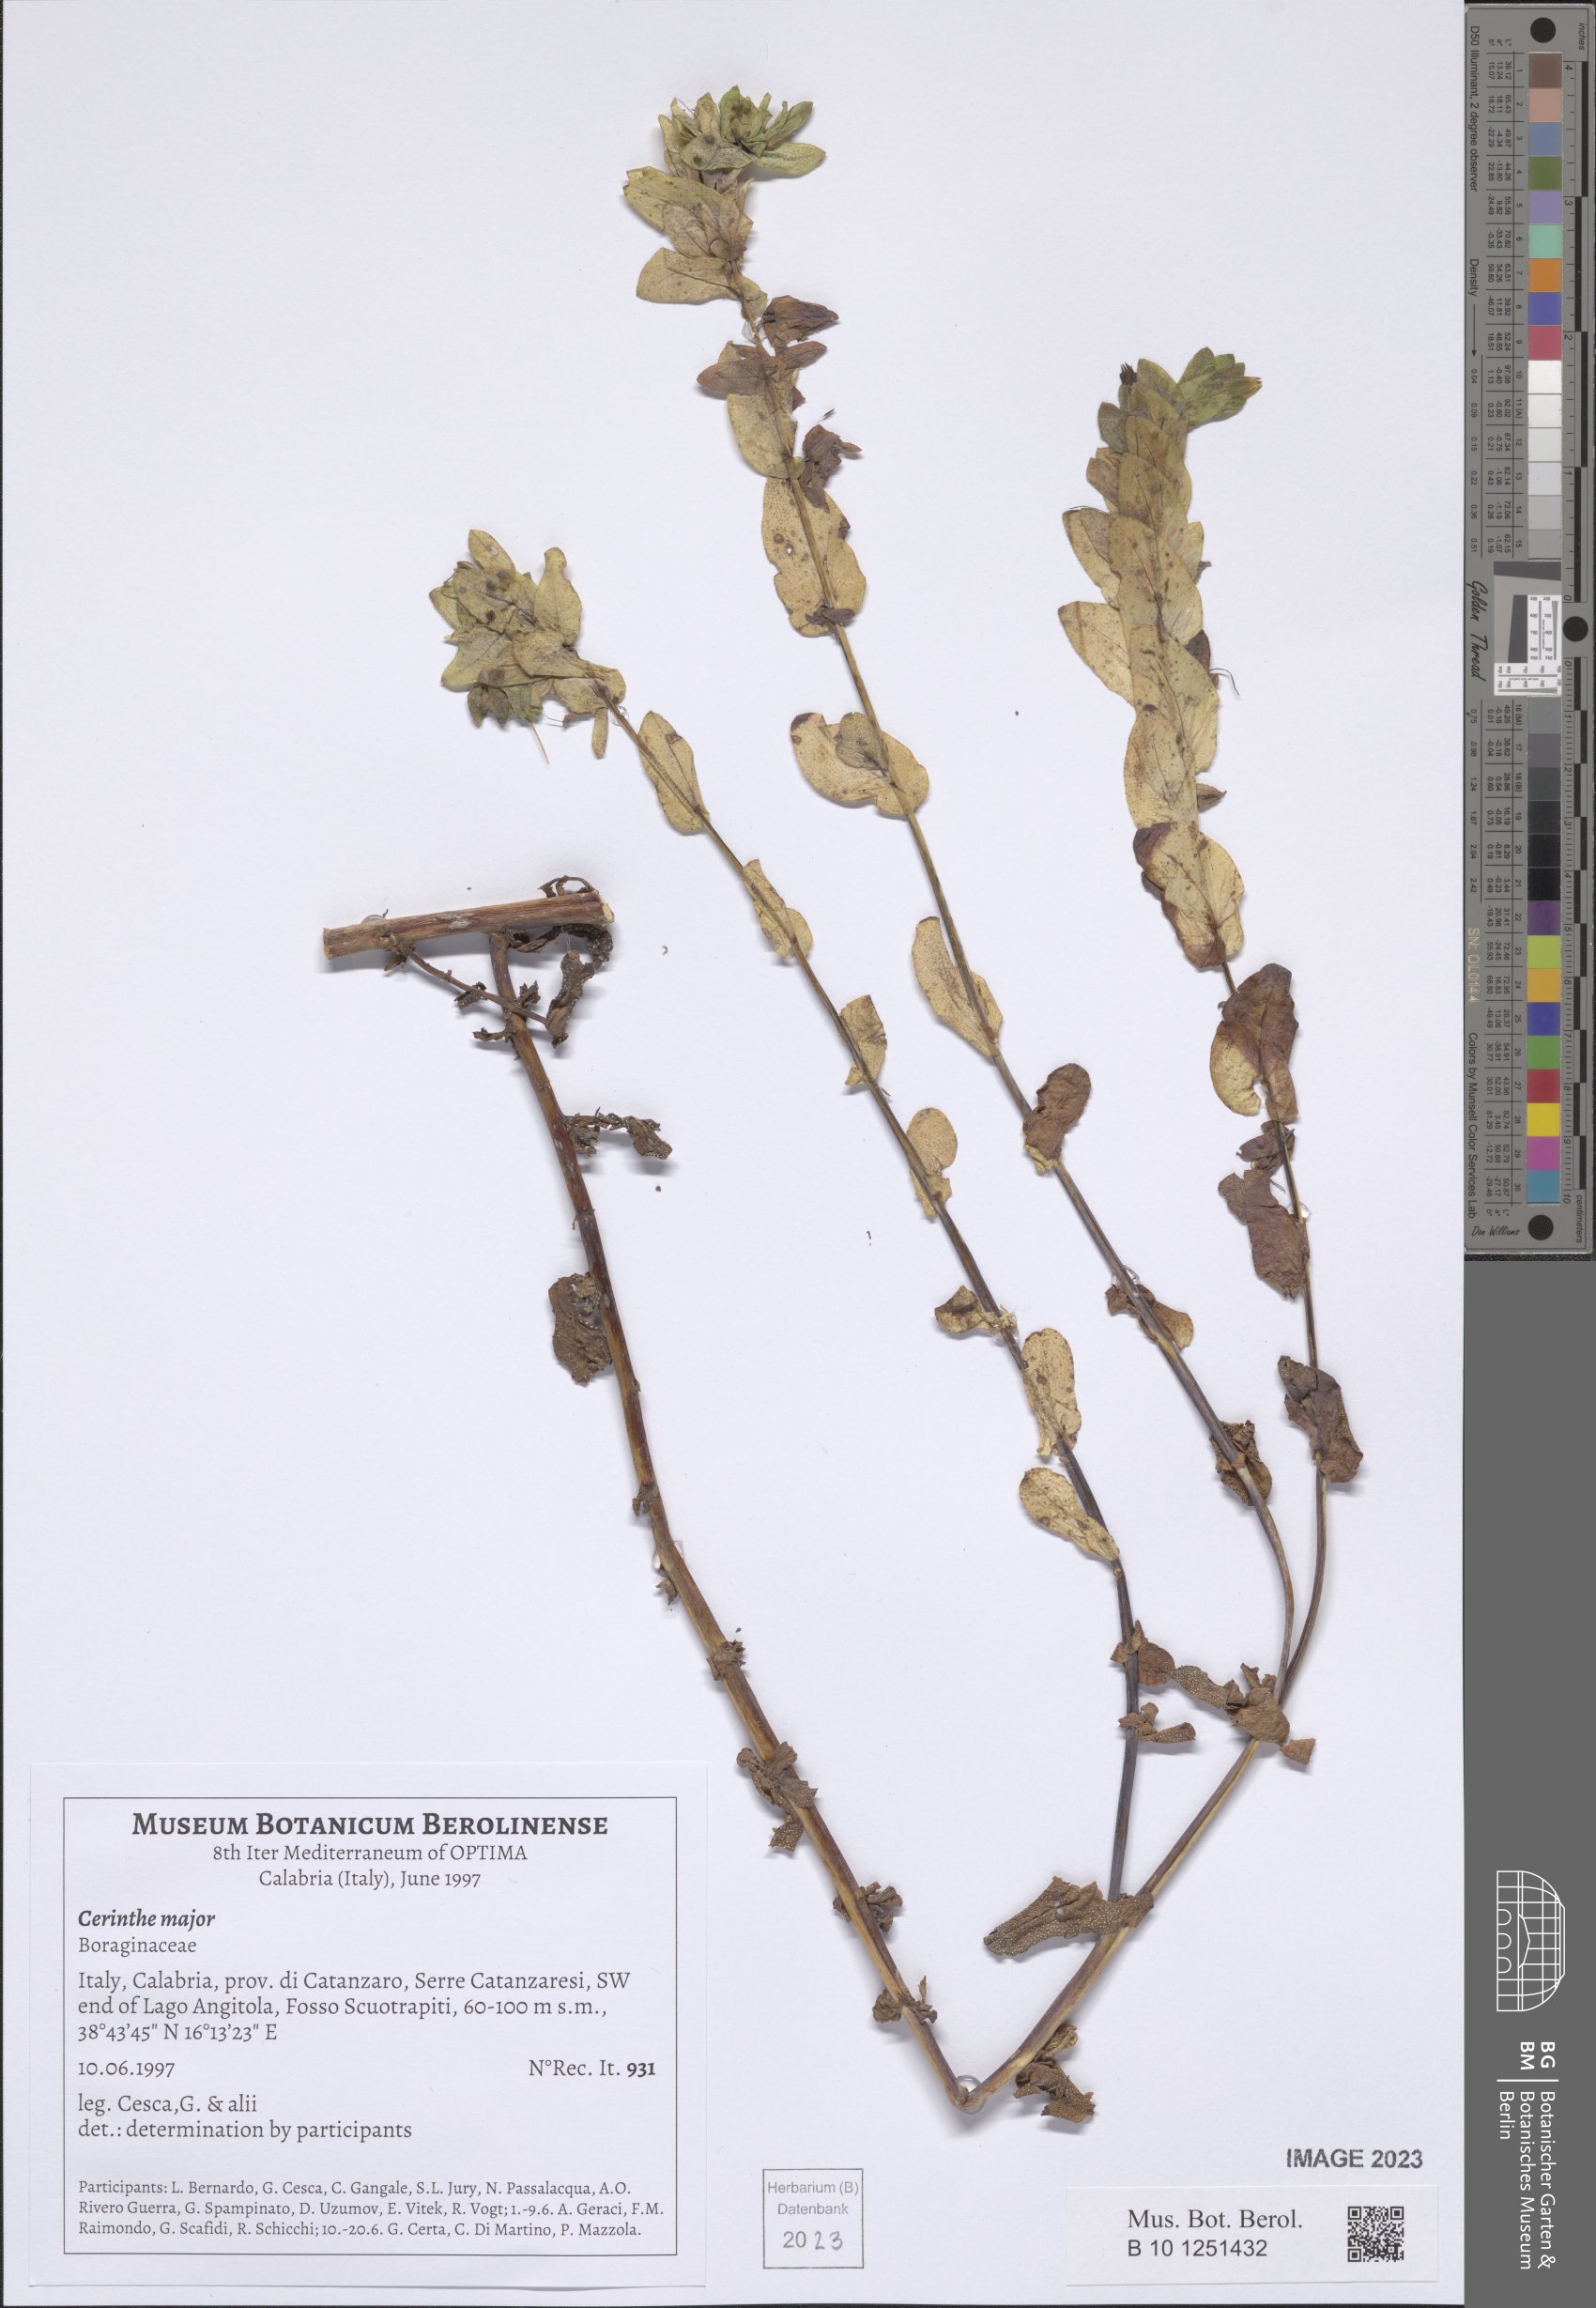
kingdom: Plantae
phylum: Tracheophyta
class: Magnoliopsida
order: Boraginales
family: Boraginaceae
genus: Cerinthe
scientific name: Cerinthe major
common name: Greater honeywort
